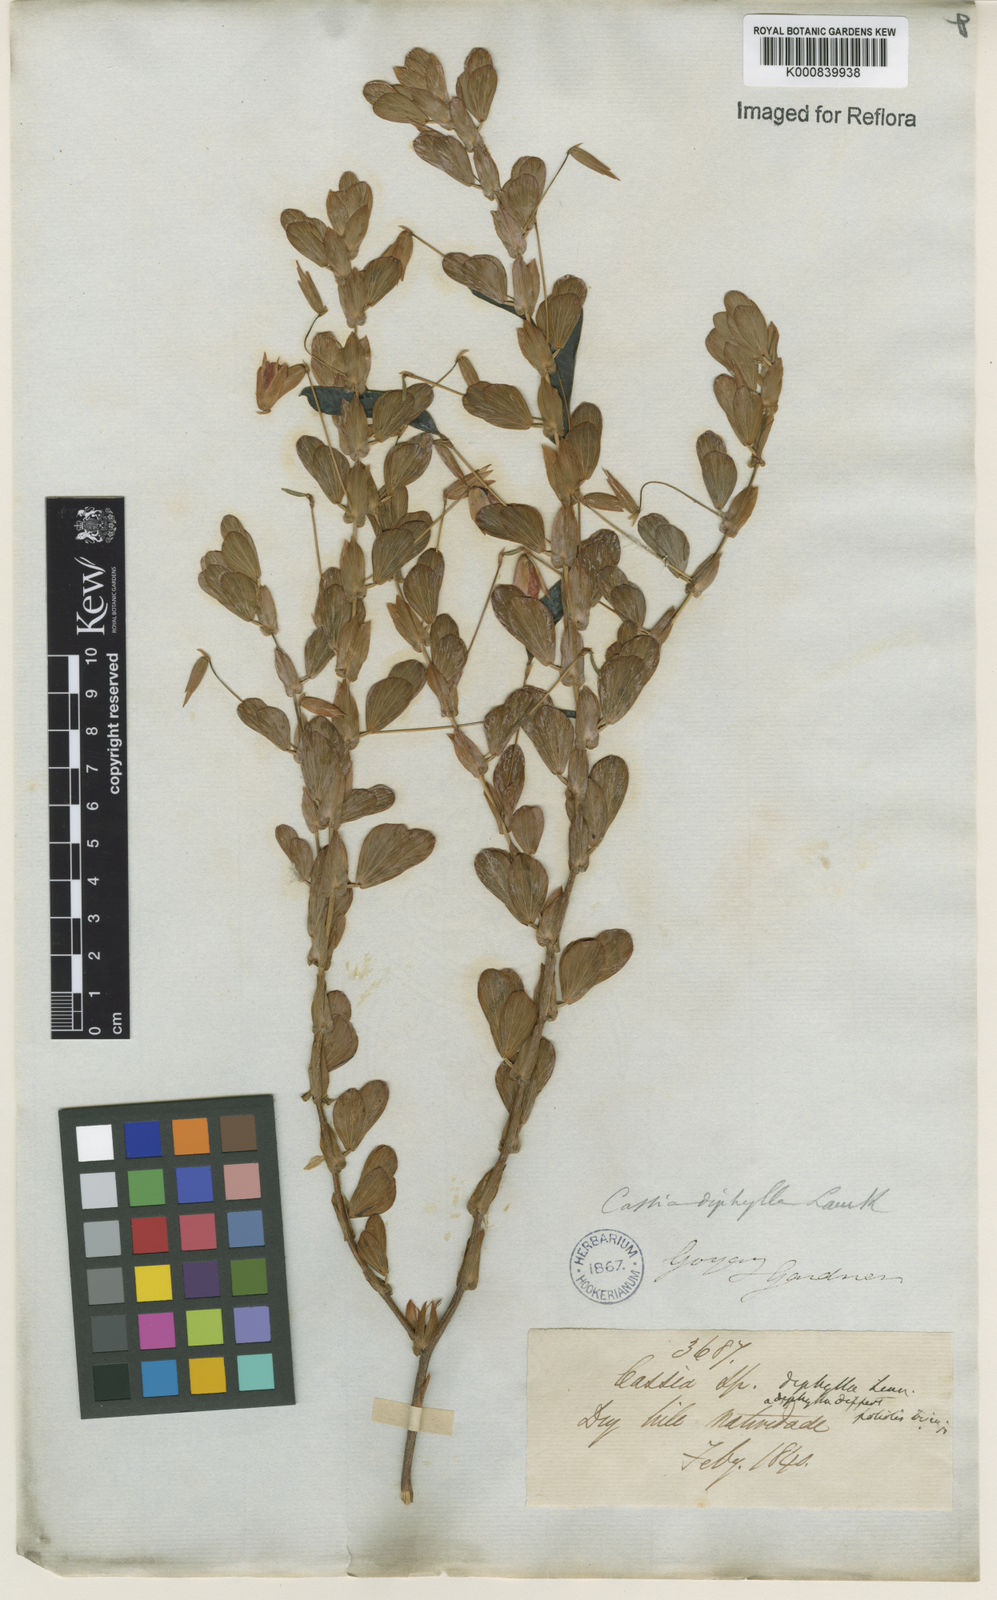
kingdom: Plantae
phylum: Tracheophyta
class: Magnoliopsida
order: Fabales
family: Fabaceae
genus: Chamaecrista
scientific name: Chamaecrista diphylla
